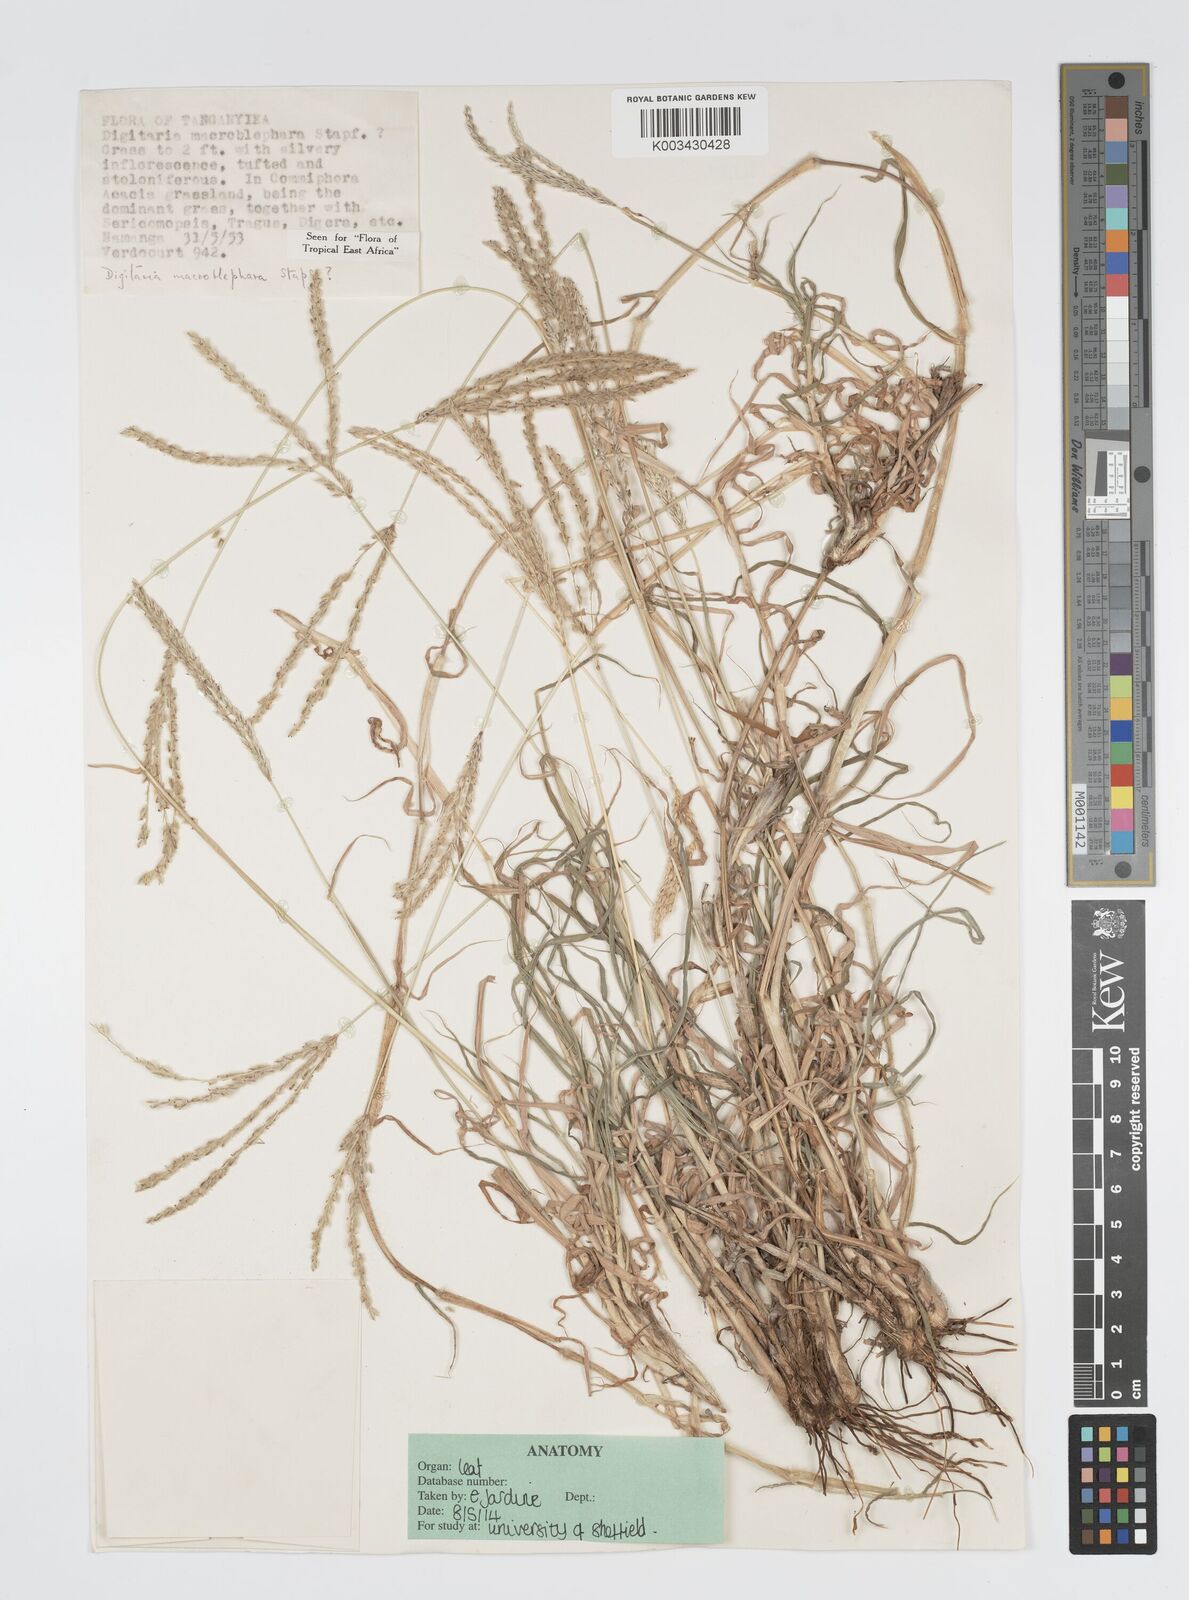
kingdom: Plantae
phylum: Tracheophyta
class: Liliopsida
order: Poales
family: Poaceae
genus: Digitaria
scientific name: Digitaria macroblephara
